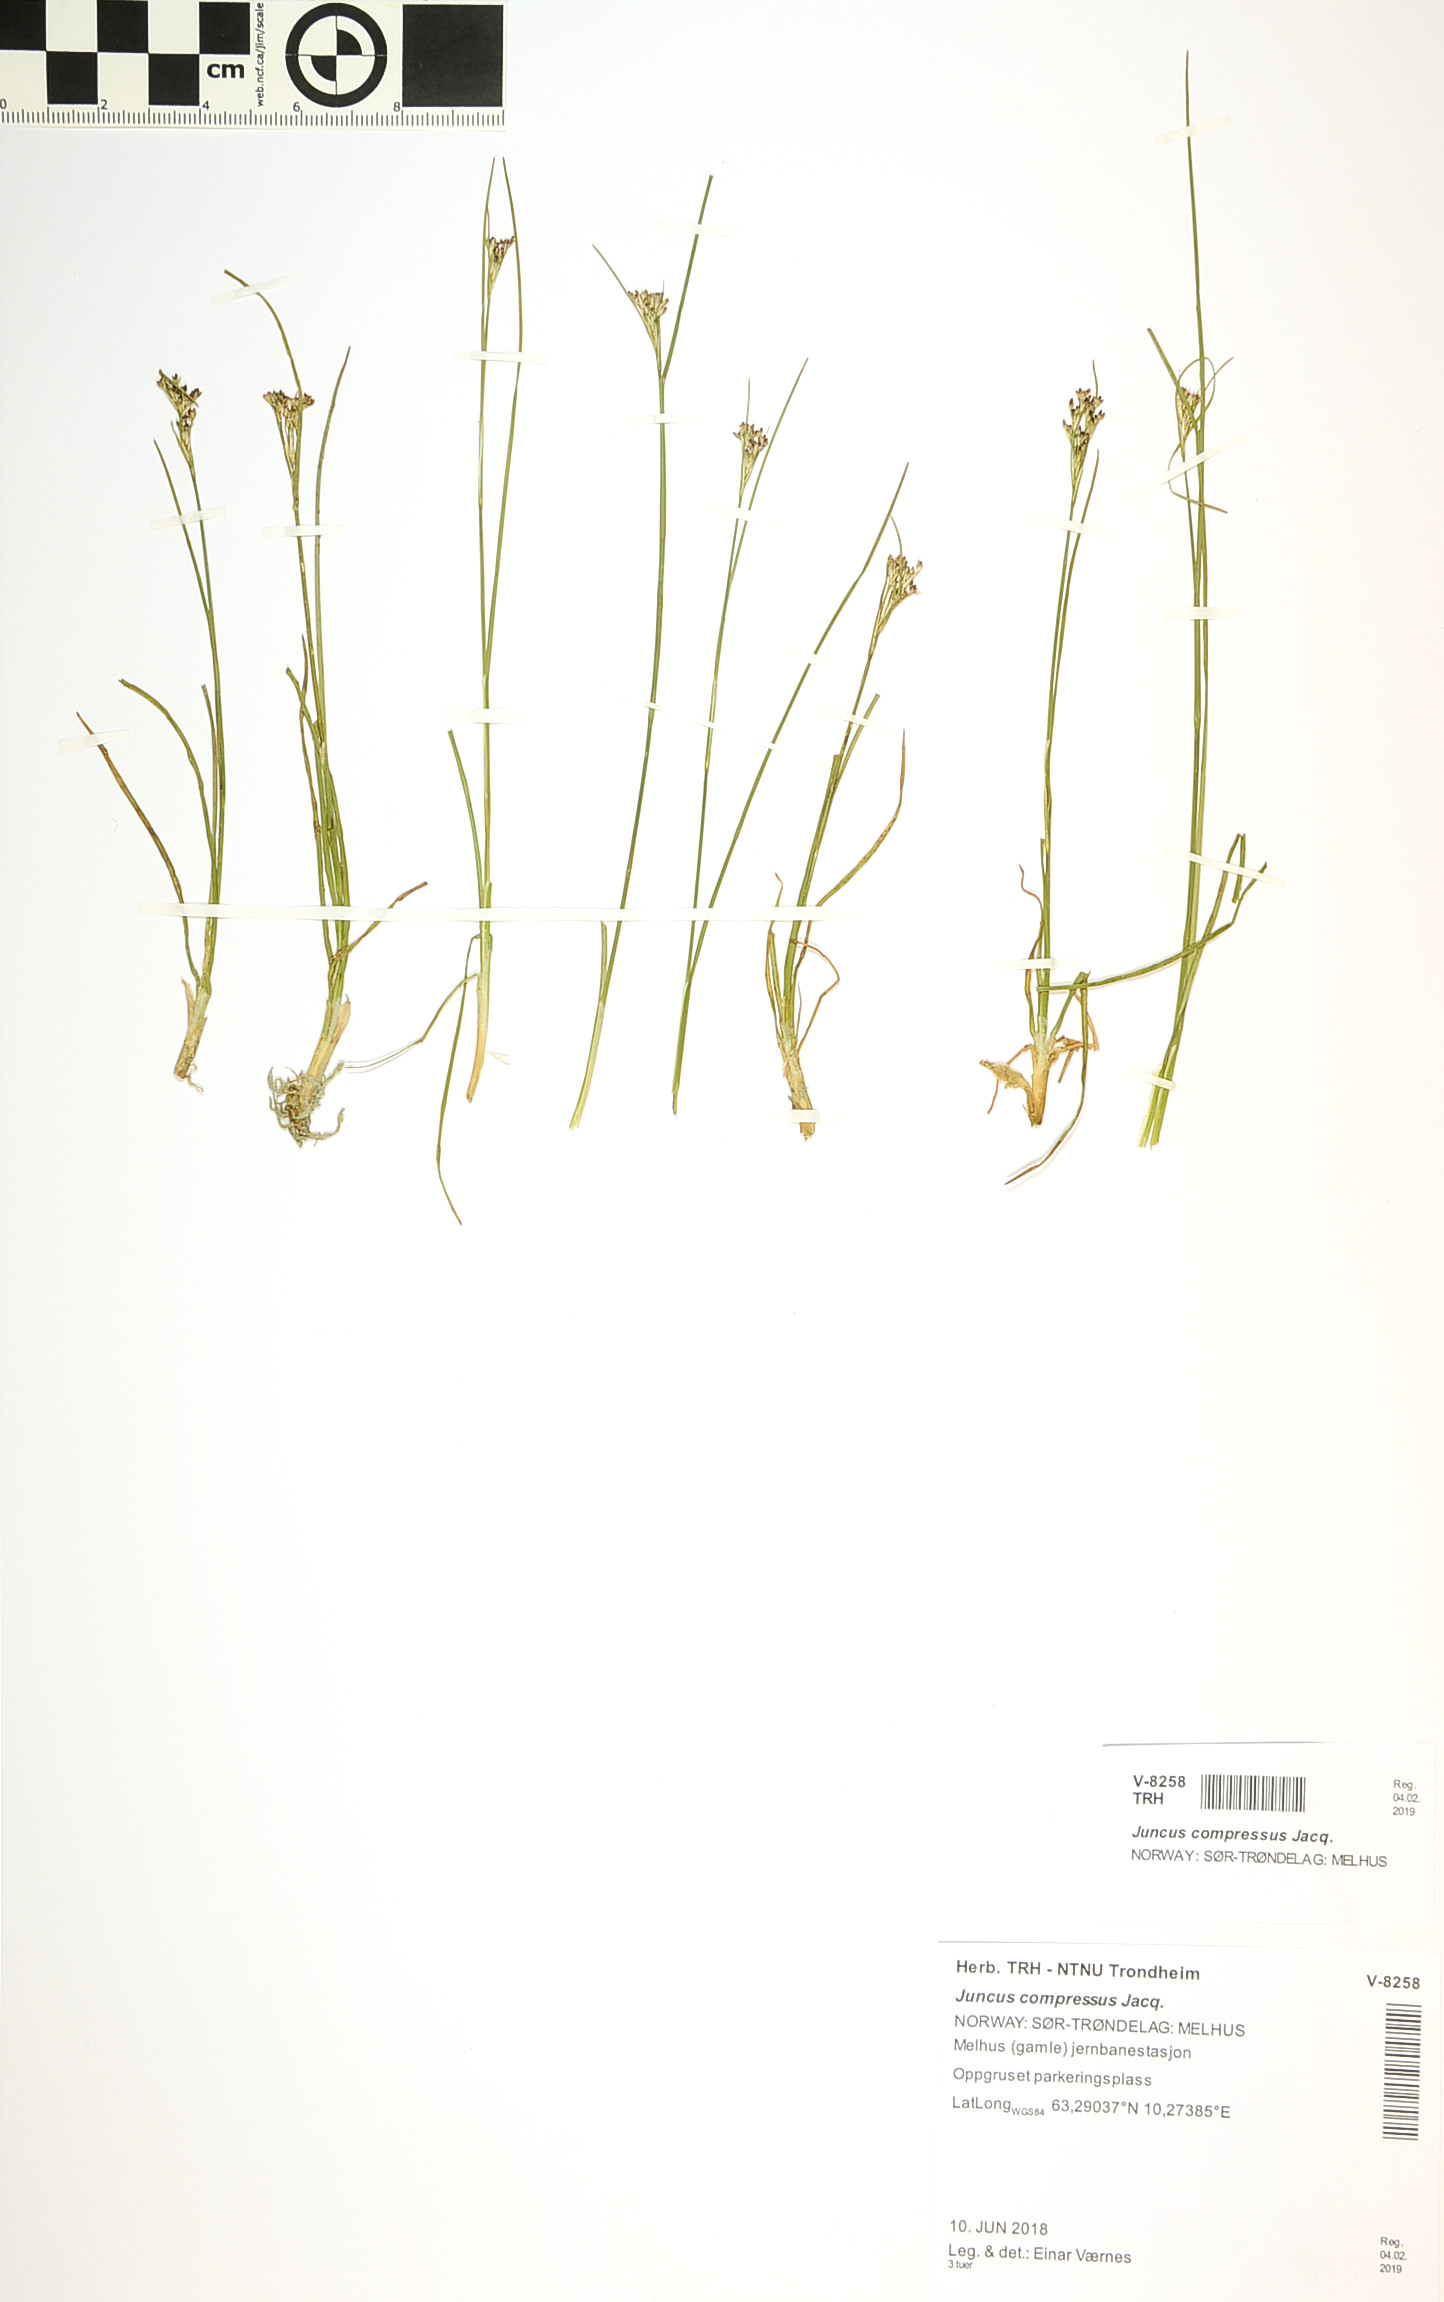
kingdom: Plantae
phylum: Tracheophyta
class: Liliopsida
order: Poales
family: Juncaceae
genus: Juncus
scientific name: Juncus compressus
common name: Round-fruited rush
